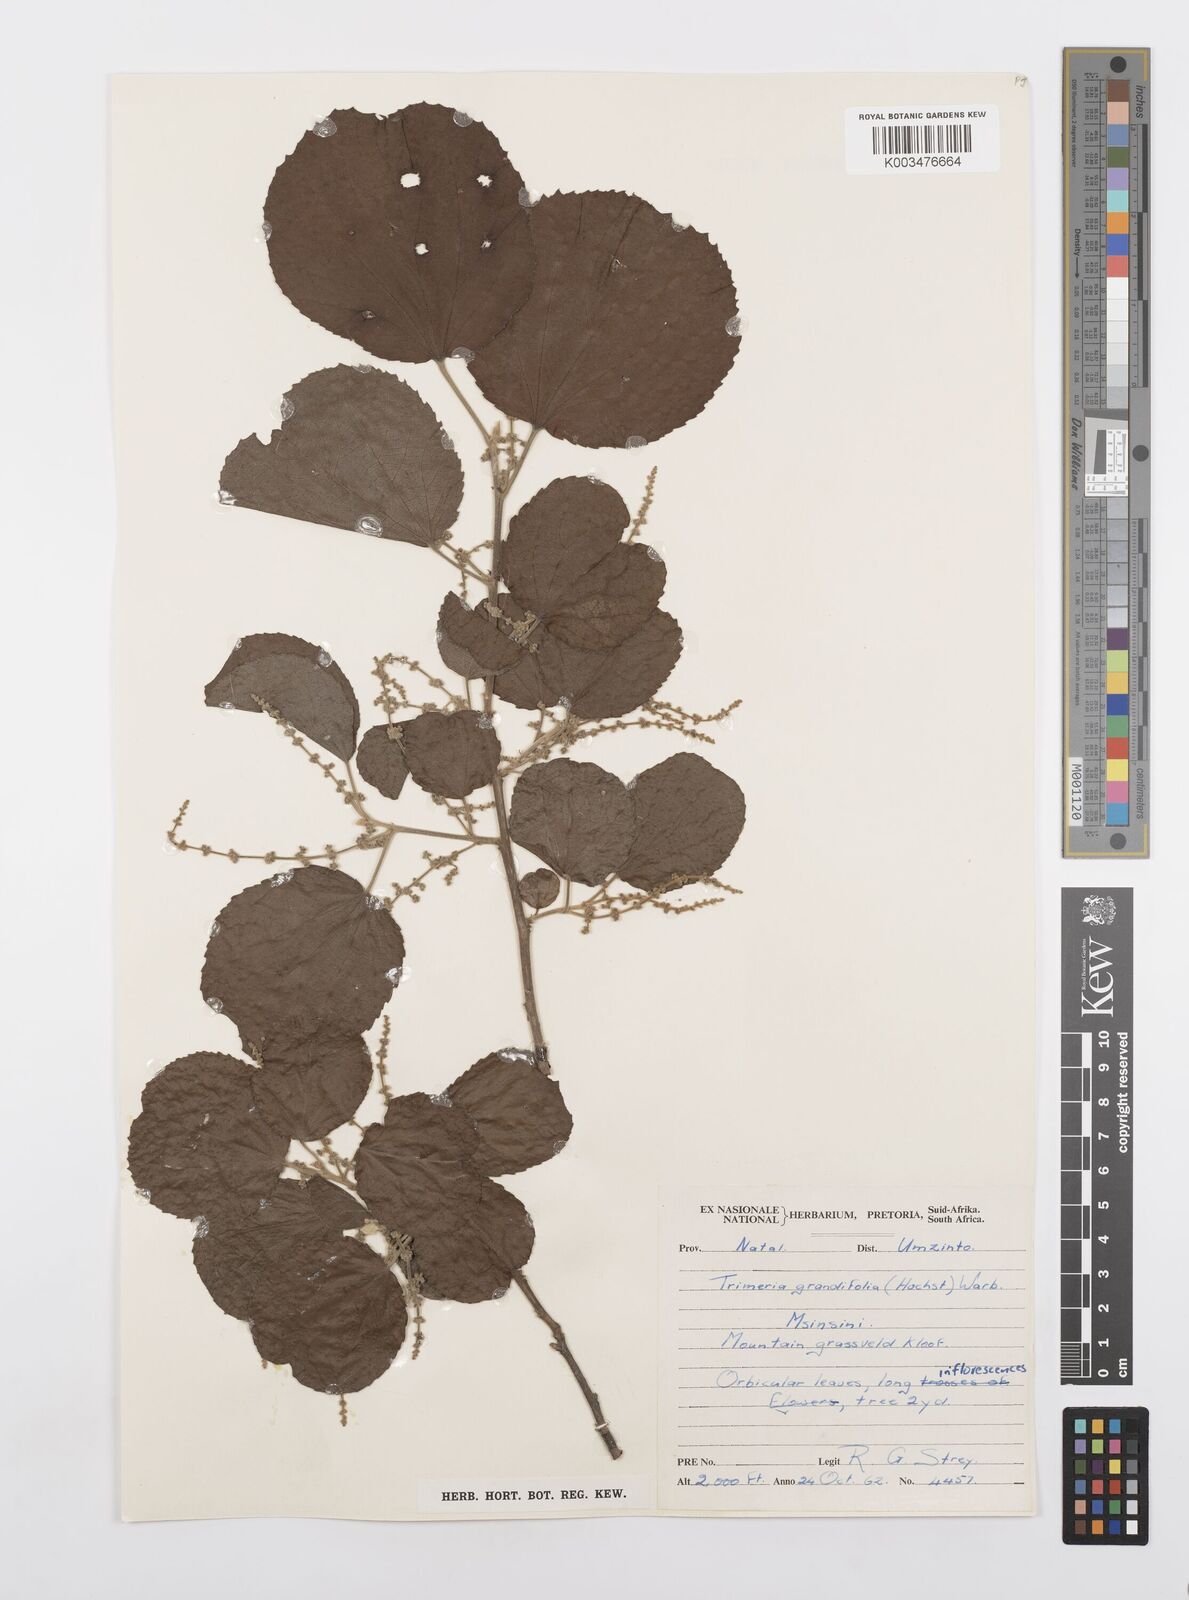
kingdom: Plantae
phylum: Tracheophyta
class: Magnoliopsida
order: Malpighiales
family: Salicaceae
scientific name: Salicaceae
